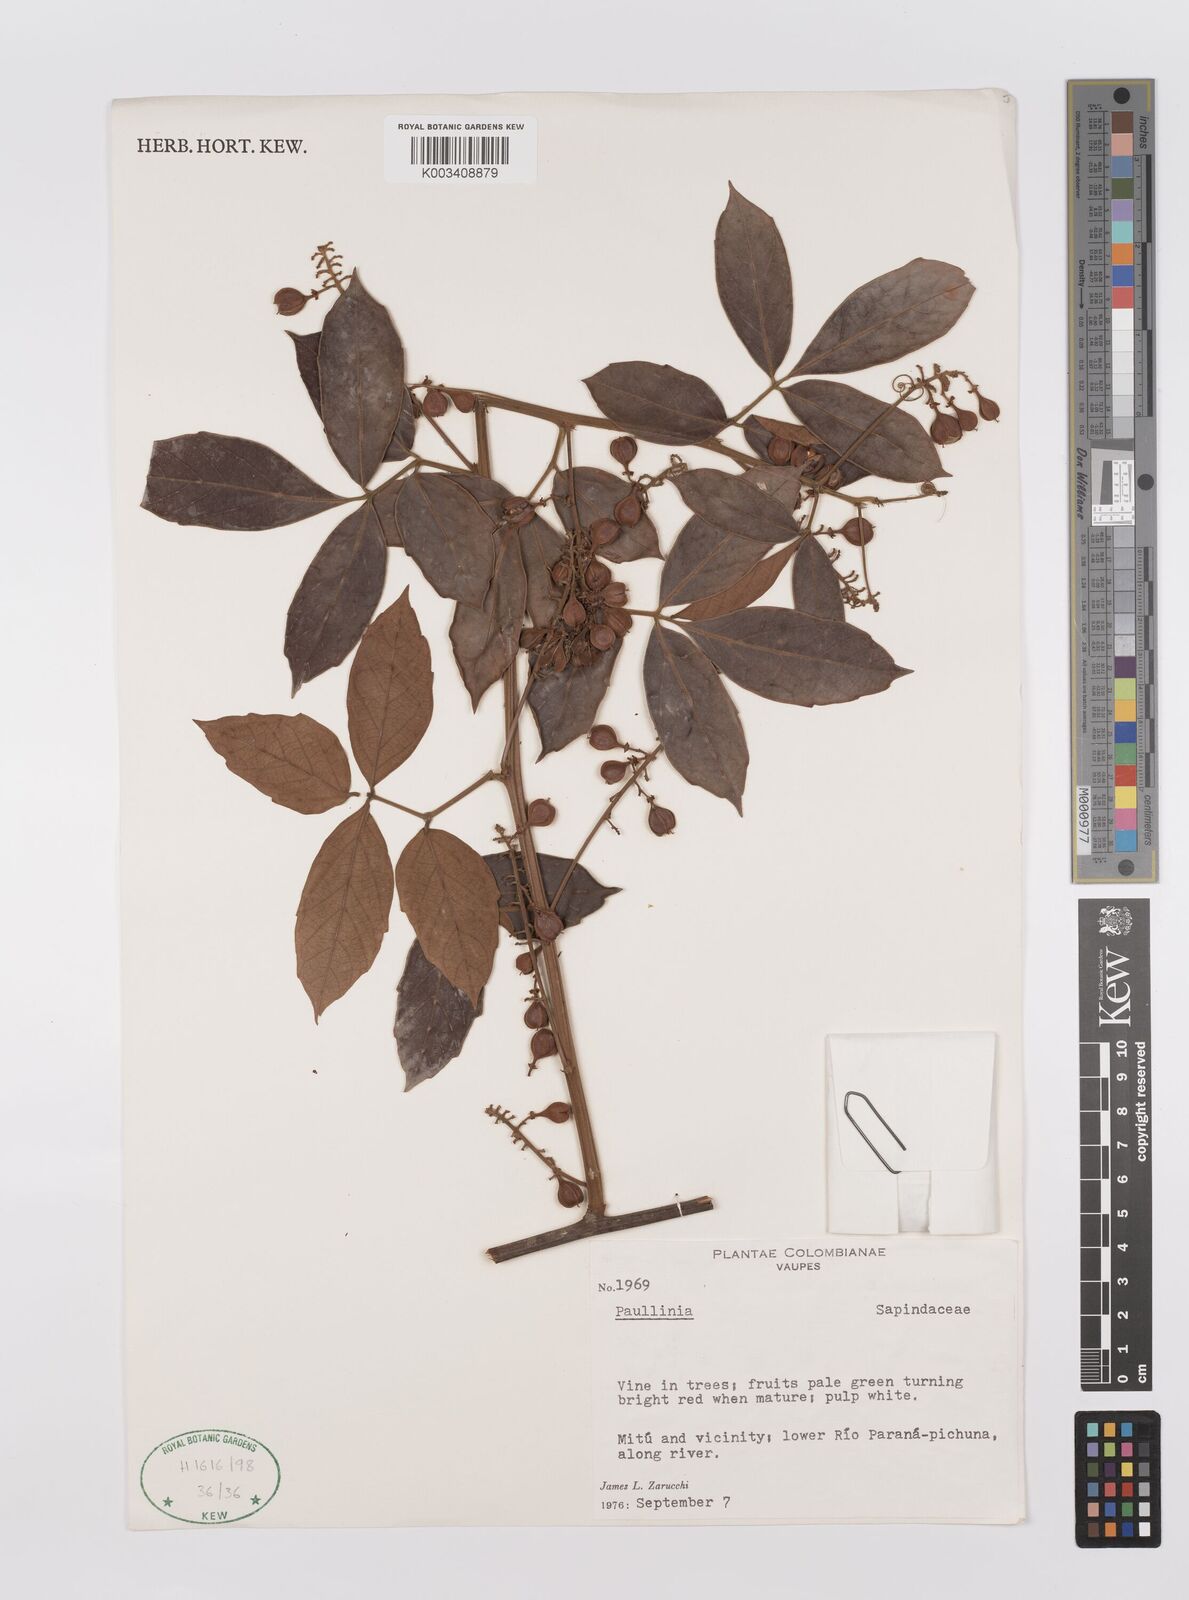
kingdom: Plantae
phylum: Tracheophyta
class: Magnoliopsida
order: Sapindales
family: Sapindaceae
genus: Paullinia
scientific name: Paullinia
